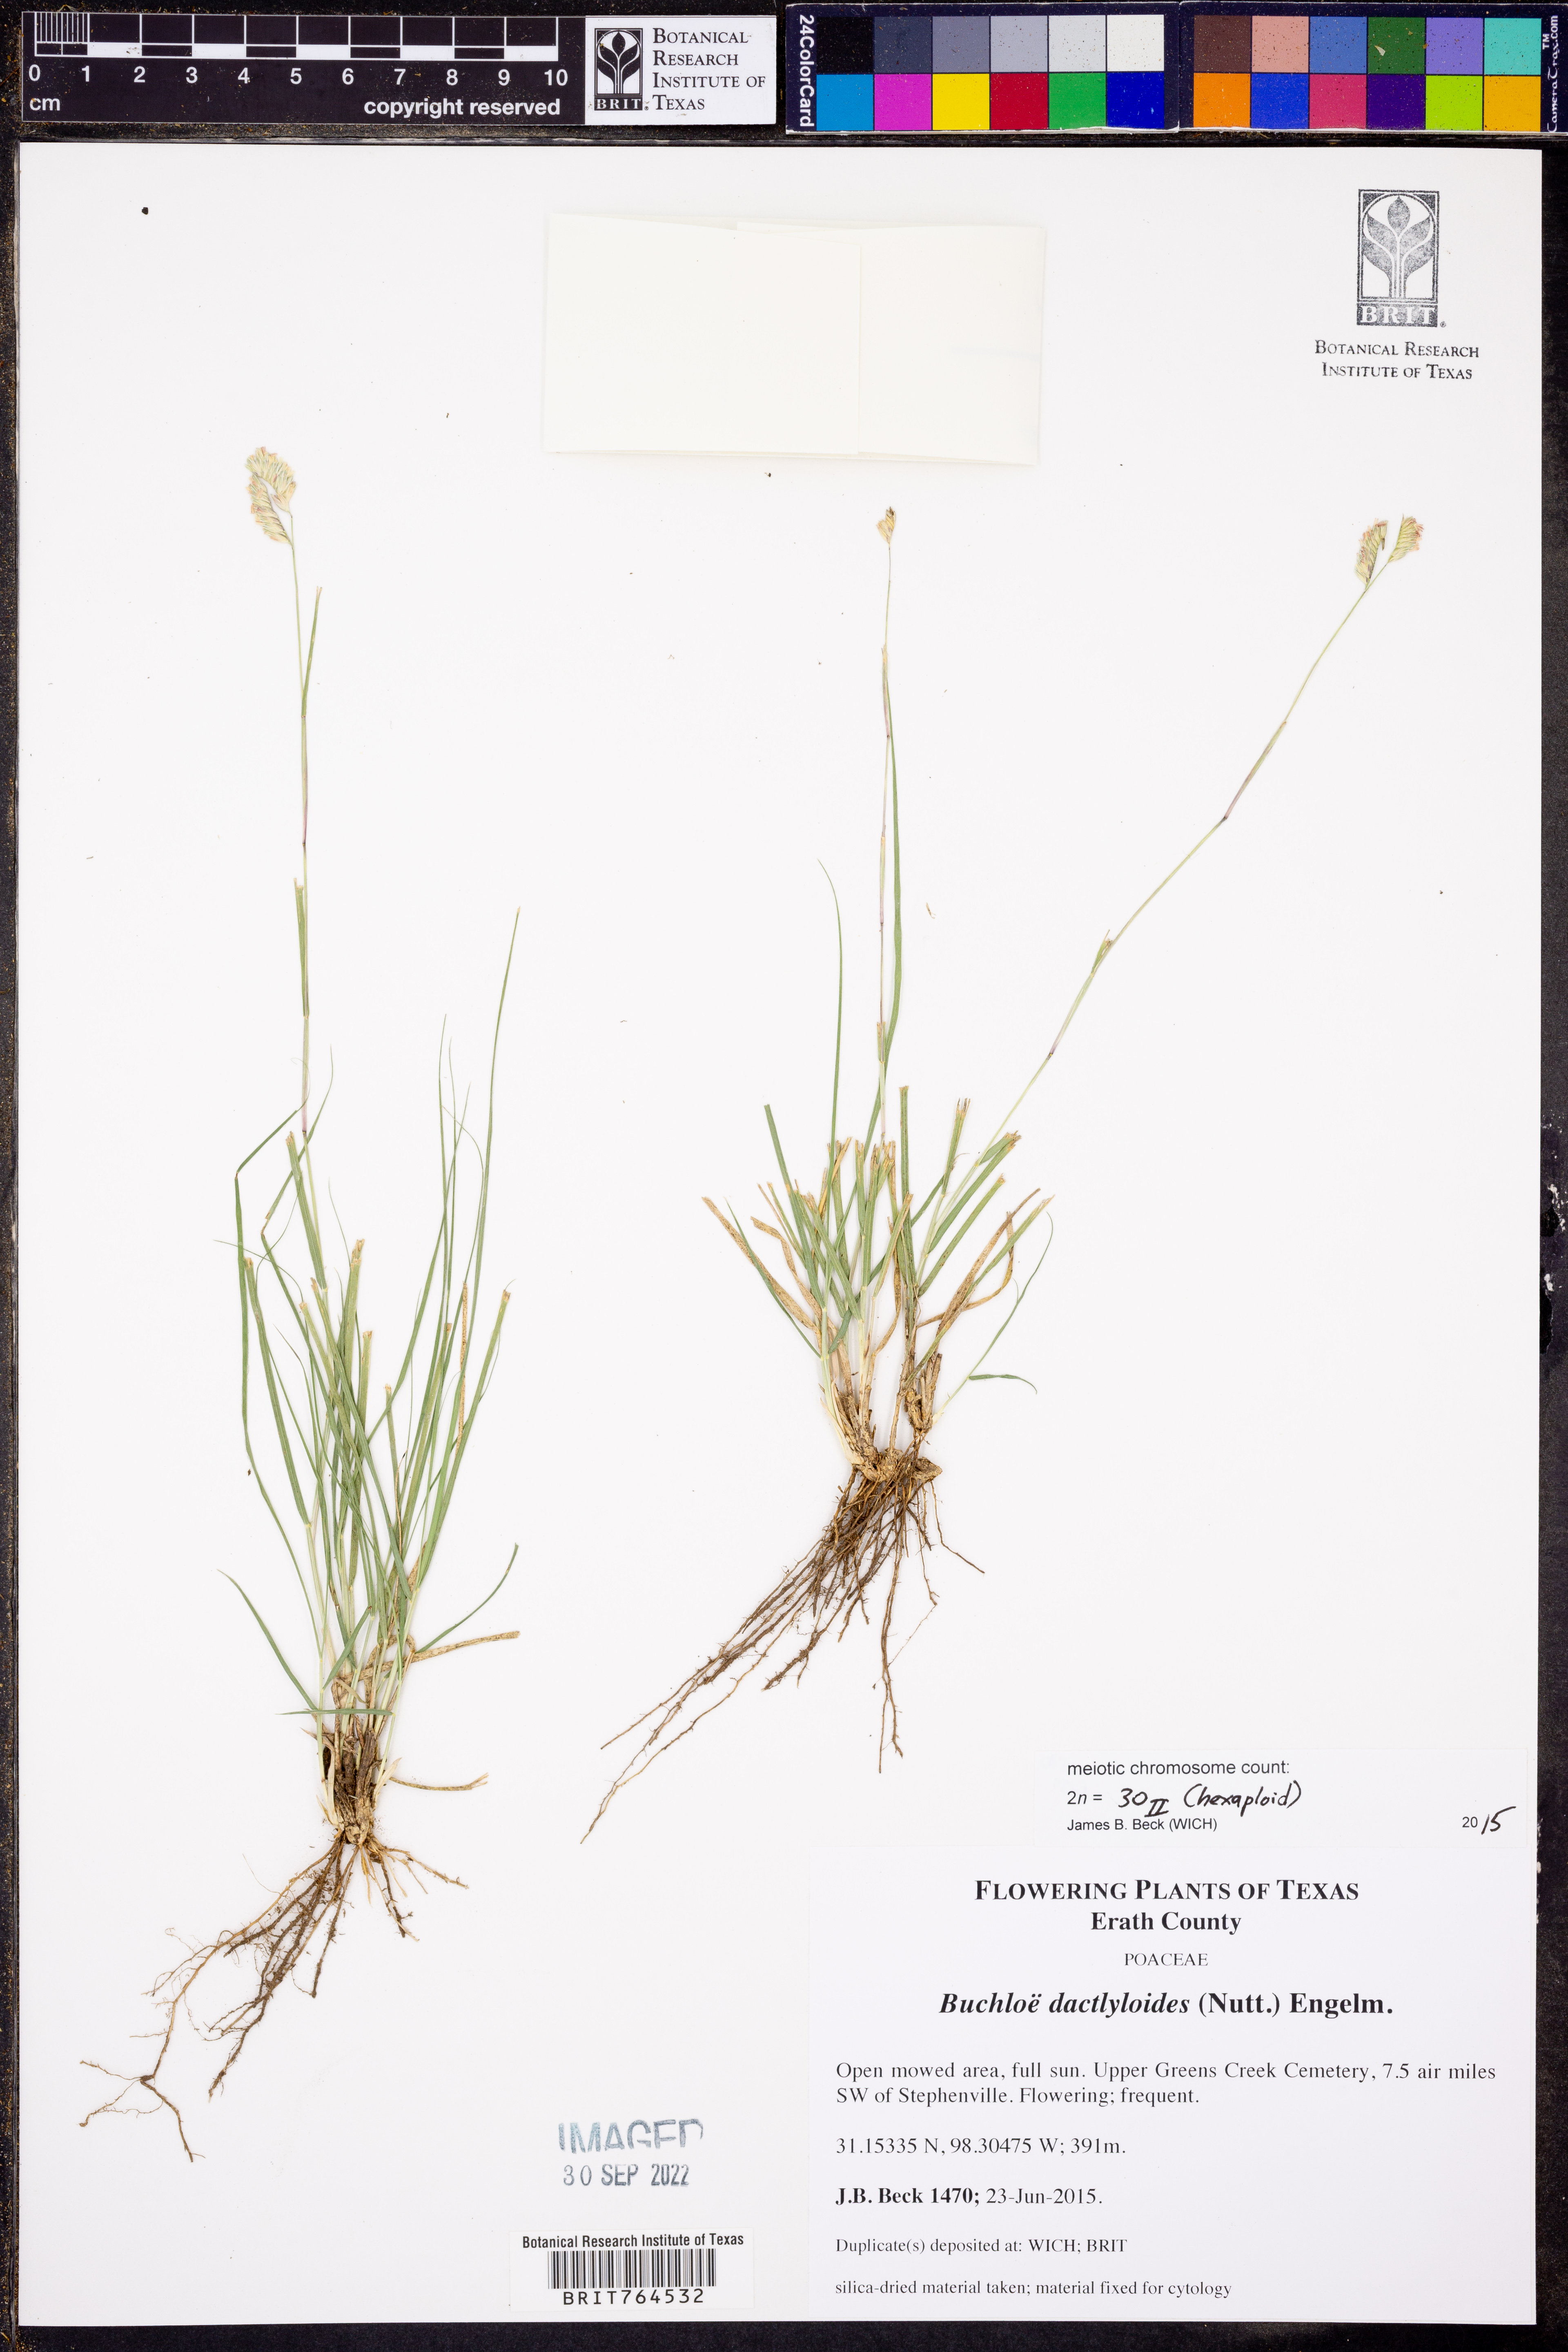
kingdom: Plantae
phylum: Tracheophyta
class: Liliopsida
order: Poales
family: Poaceae
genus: Bouteloua
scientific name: Bouteloua dactyloides
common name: Buffalo grass
